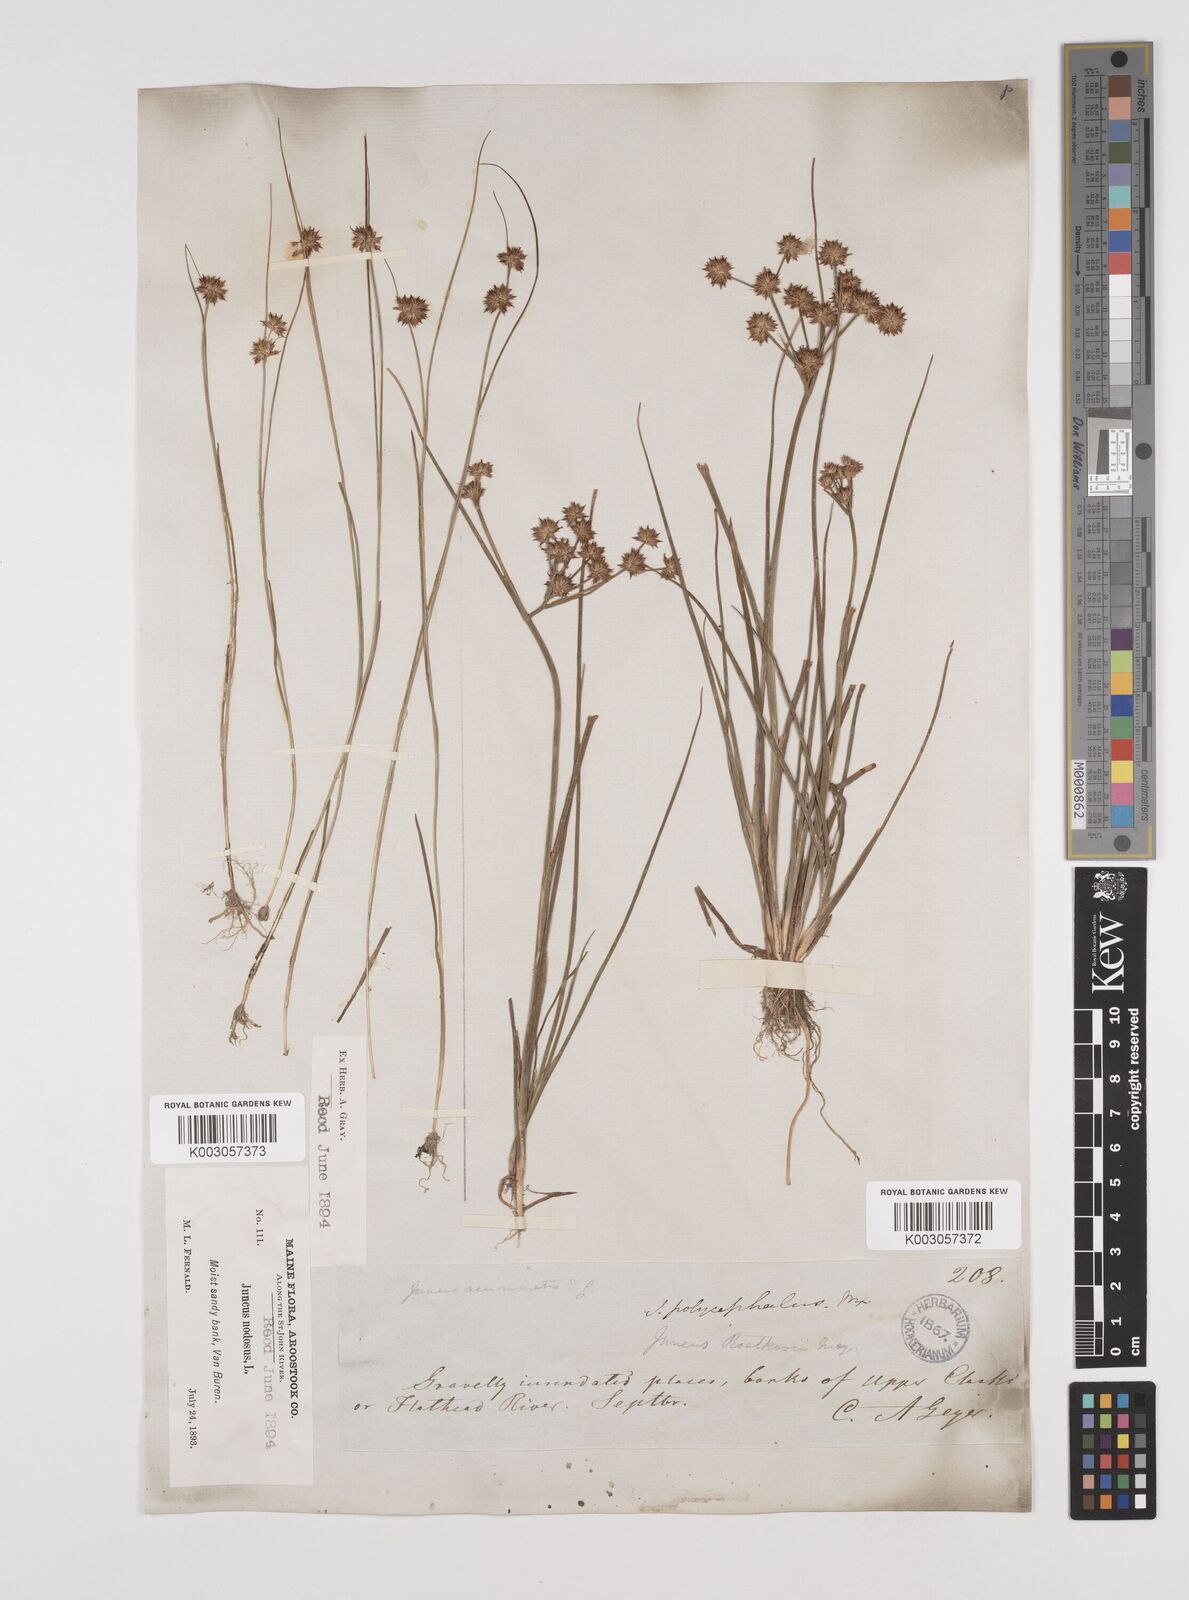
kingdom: Plantae
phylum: Tracheophyta
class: Liliopsida
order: Poales
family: Juncaceae
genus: Juncus
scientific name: Juncus nodosus
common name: Knotted rush
